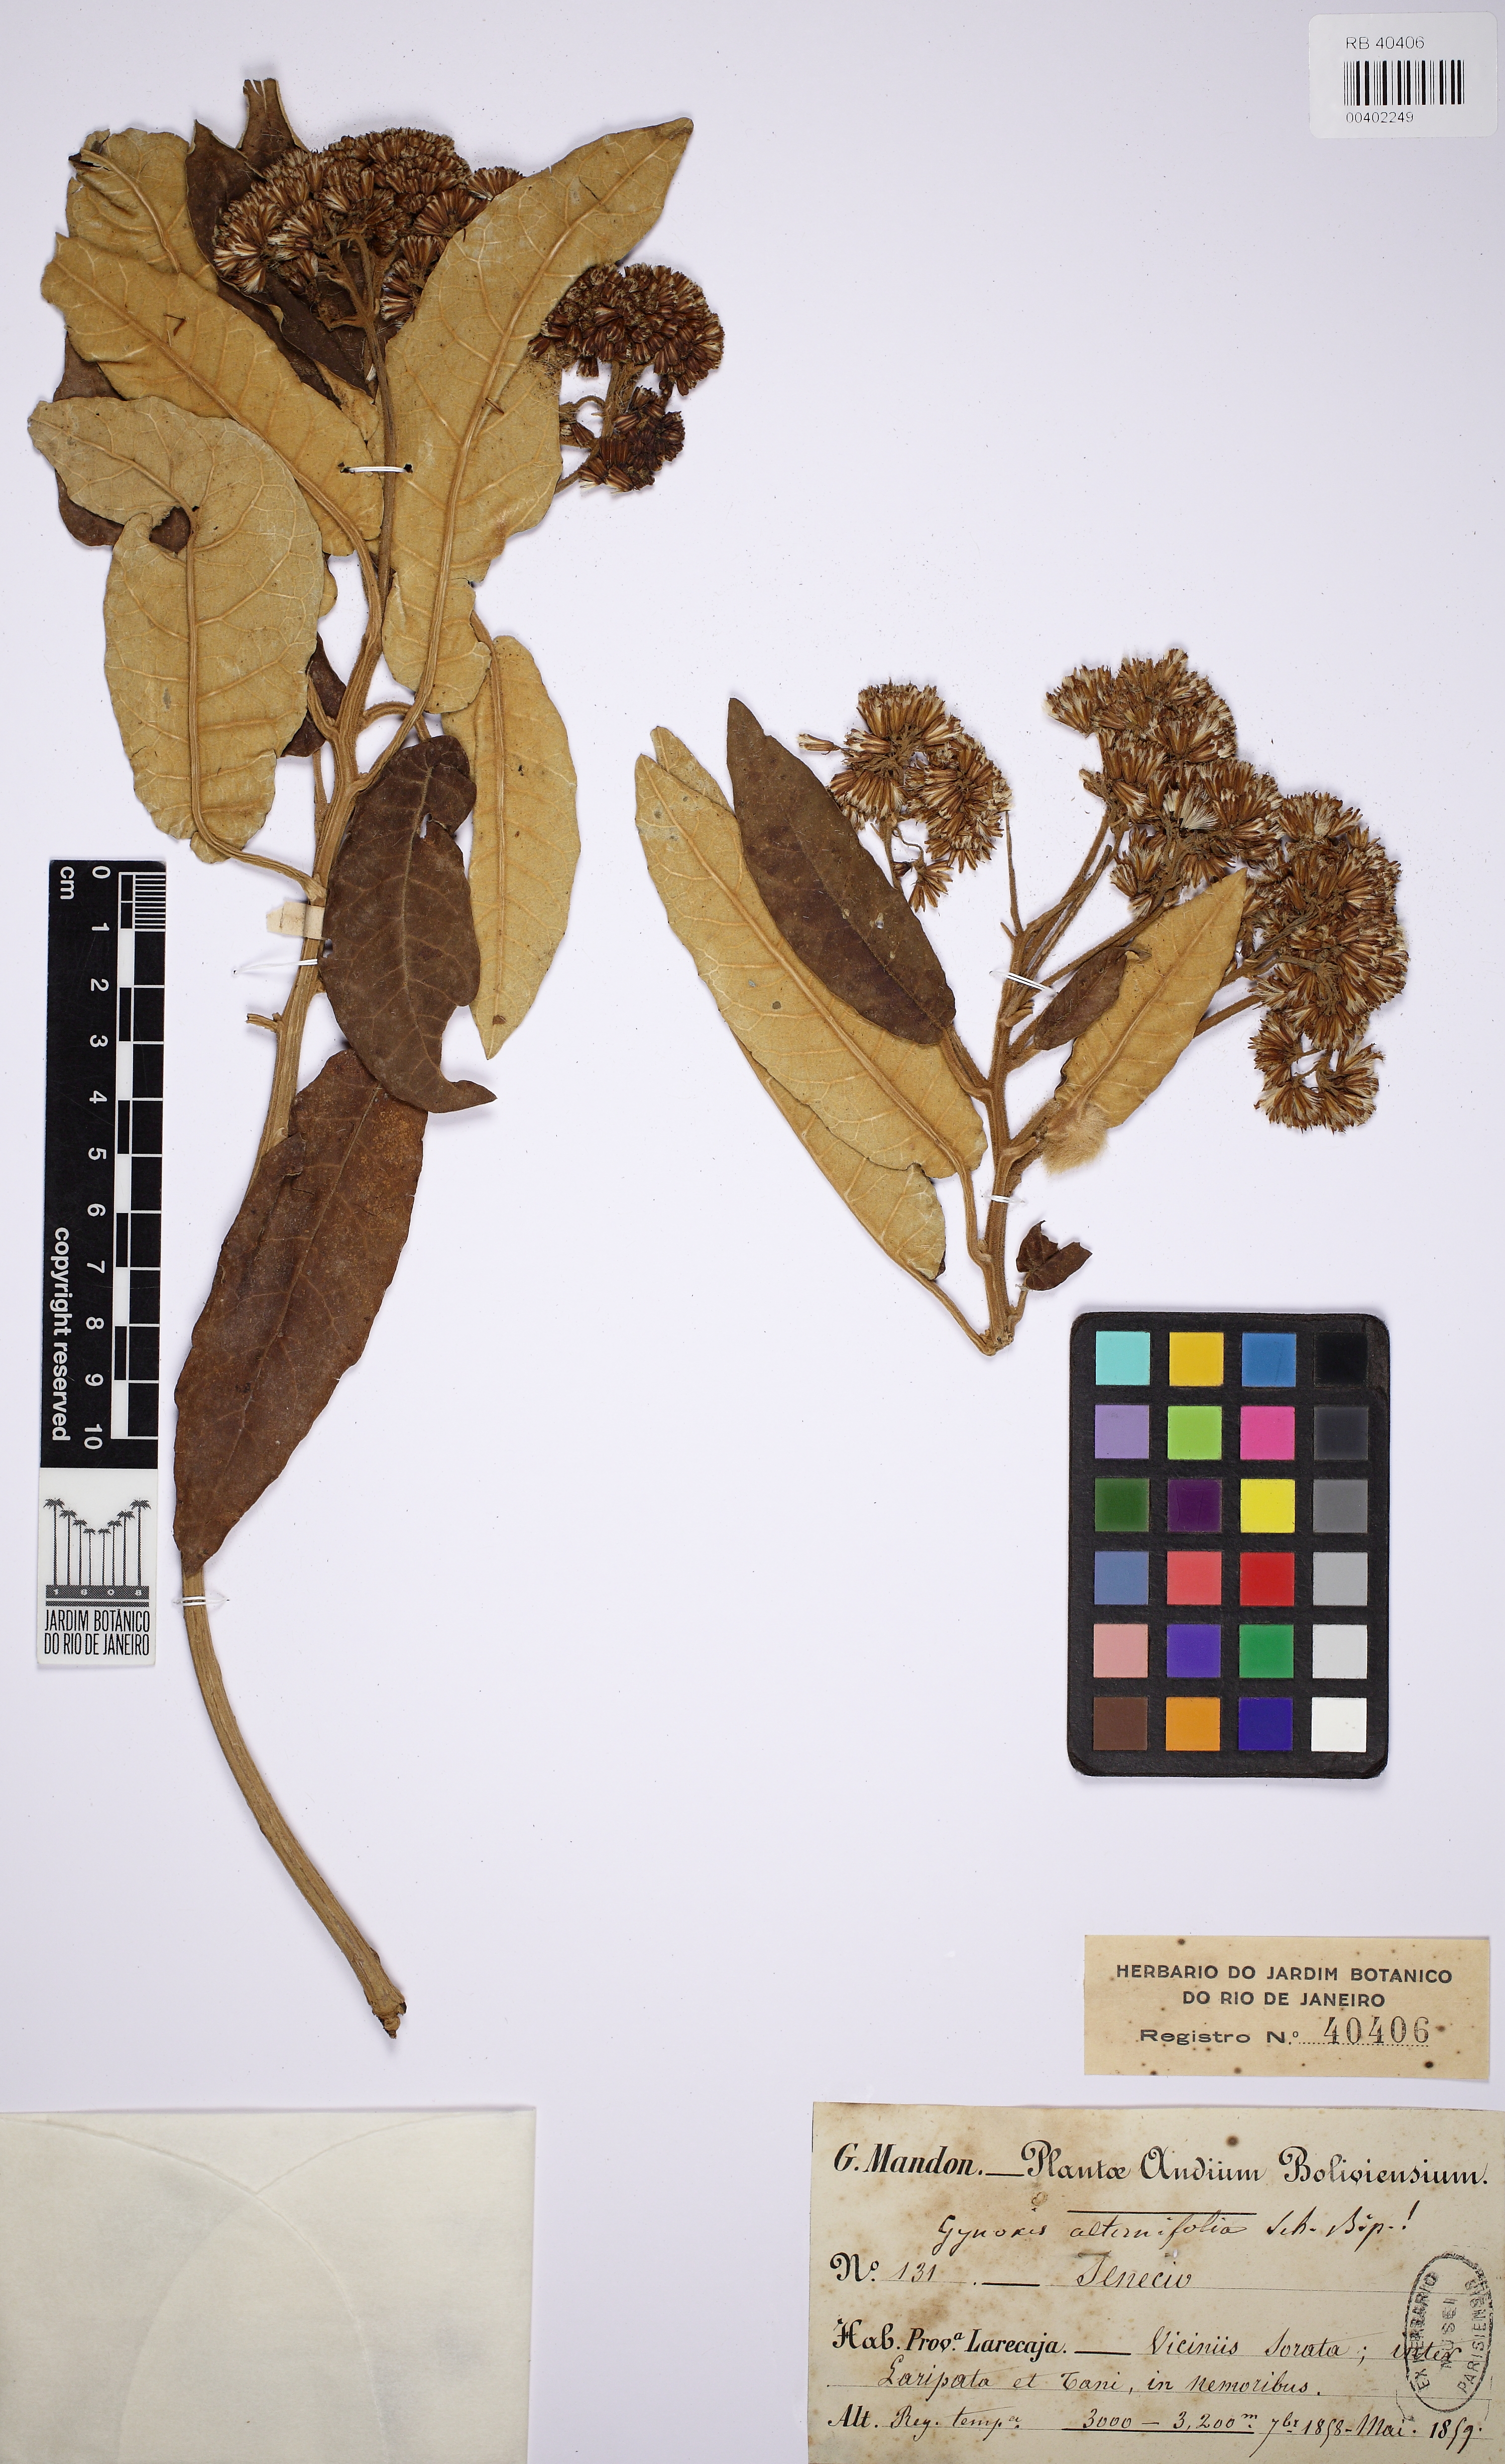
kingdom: Plantae
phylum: Tracheophyta
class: Magnoliopsida
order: Asterales
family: Asteraceae
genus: Nordenstamia
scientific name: Nordenstamia repanda
